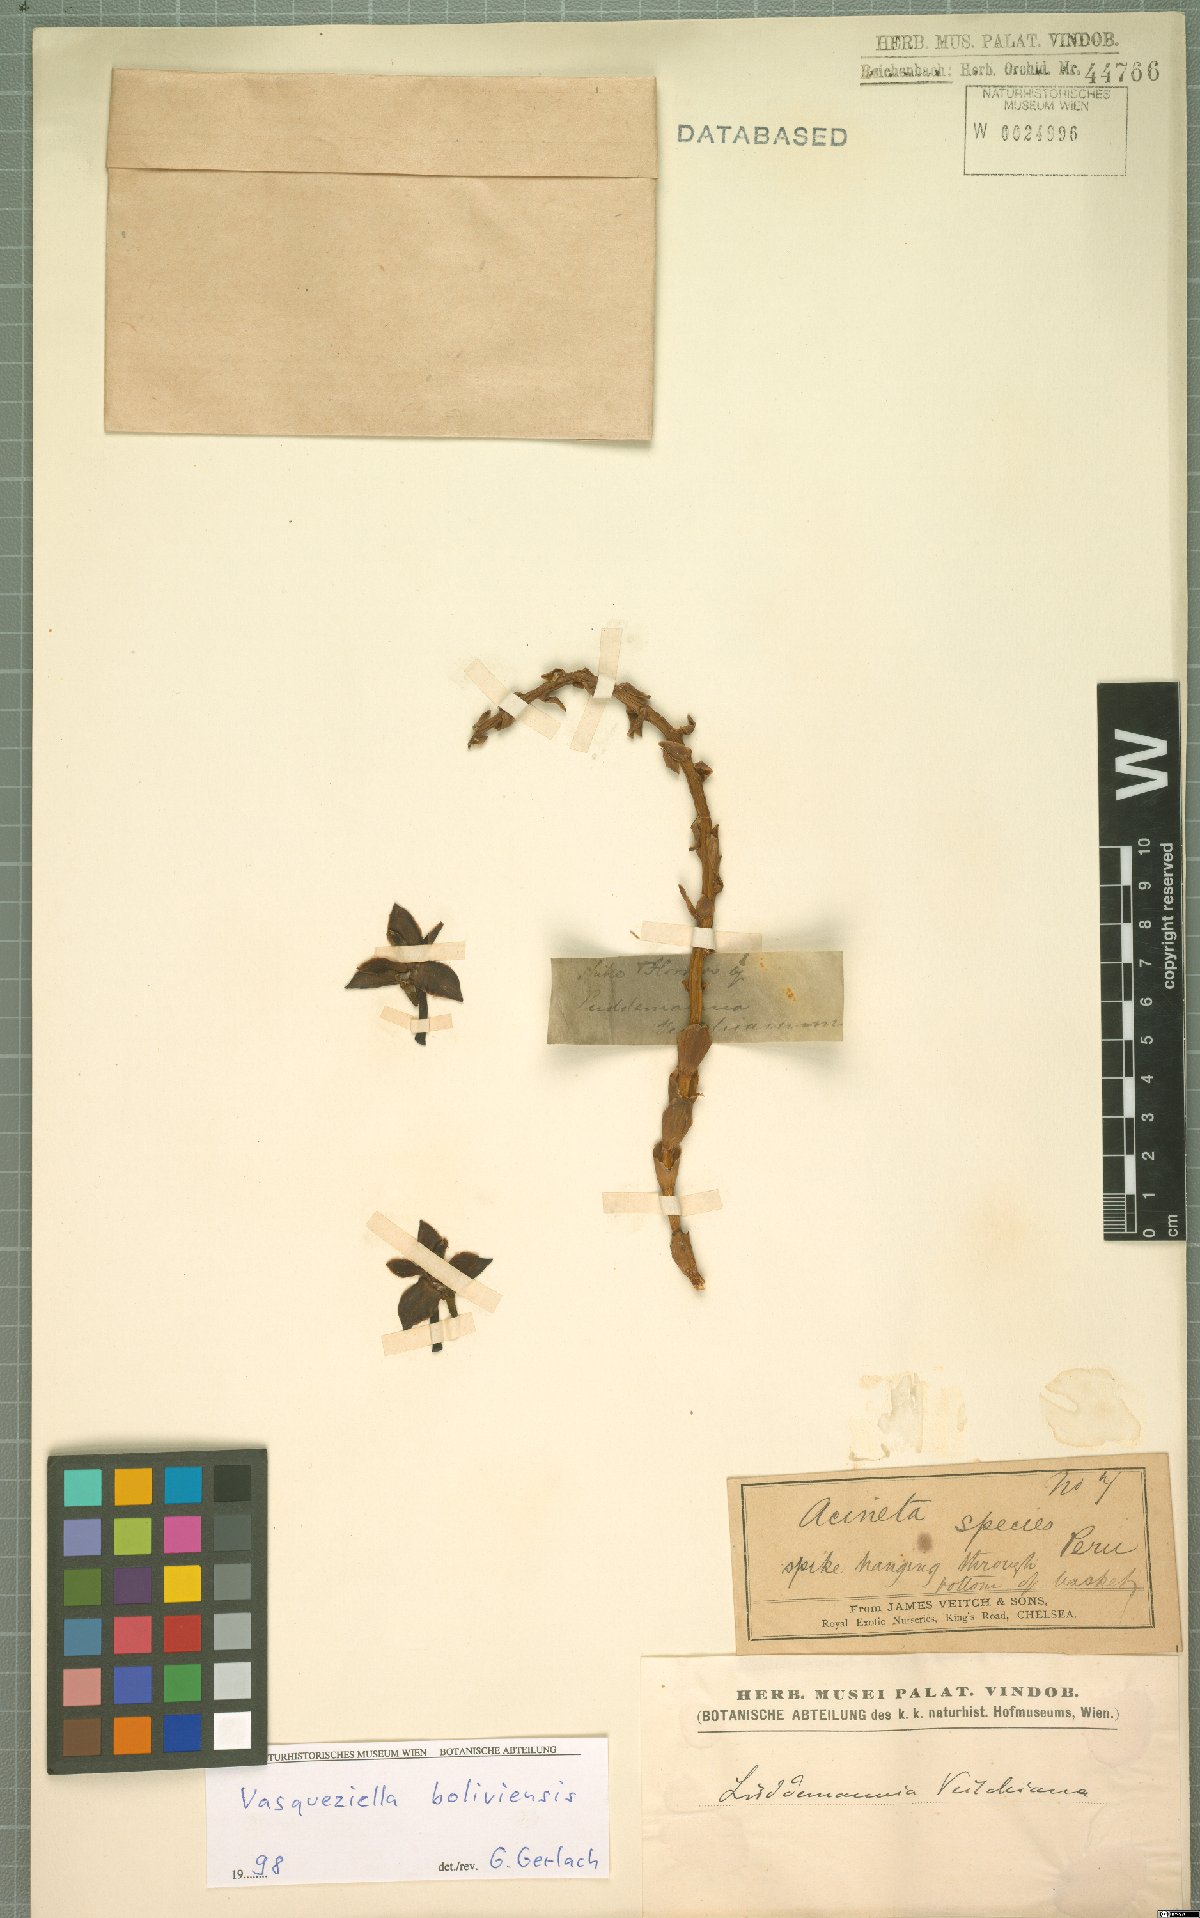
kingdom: Plantae
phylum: Tracheophyta
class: Liliopsida
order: Asparagales
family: Orchidaceae
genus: Vasqueziella
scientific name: Vasqueziella boliviana
